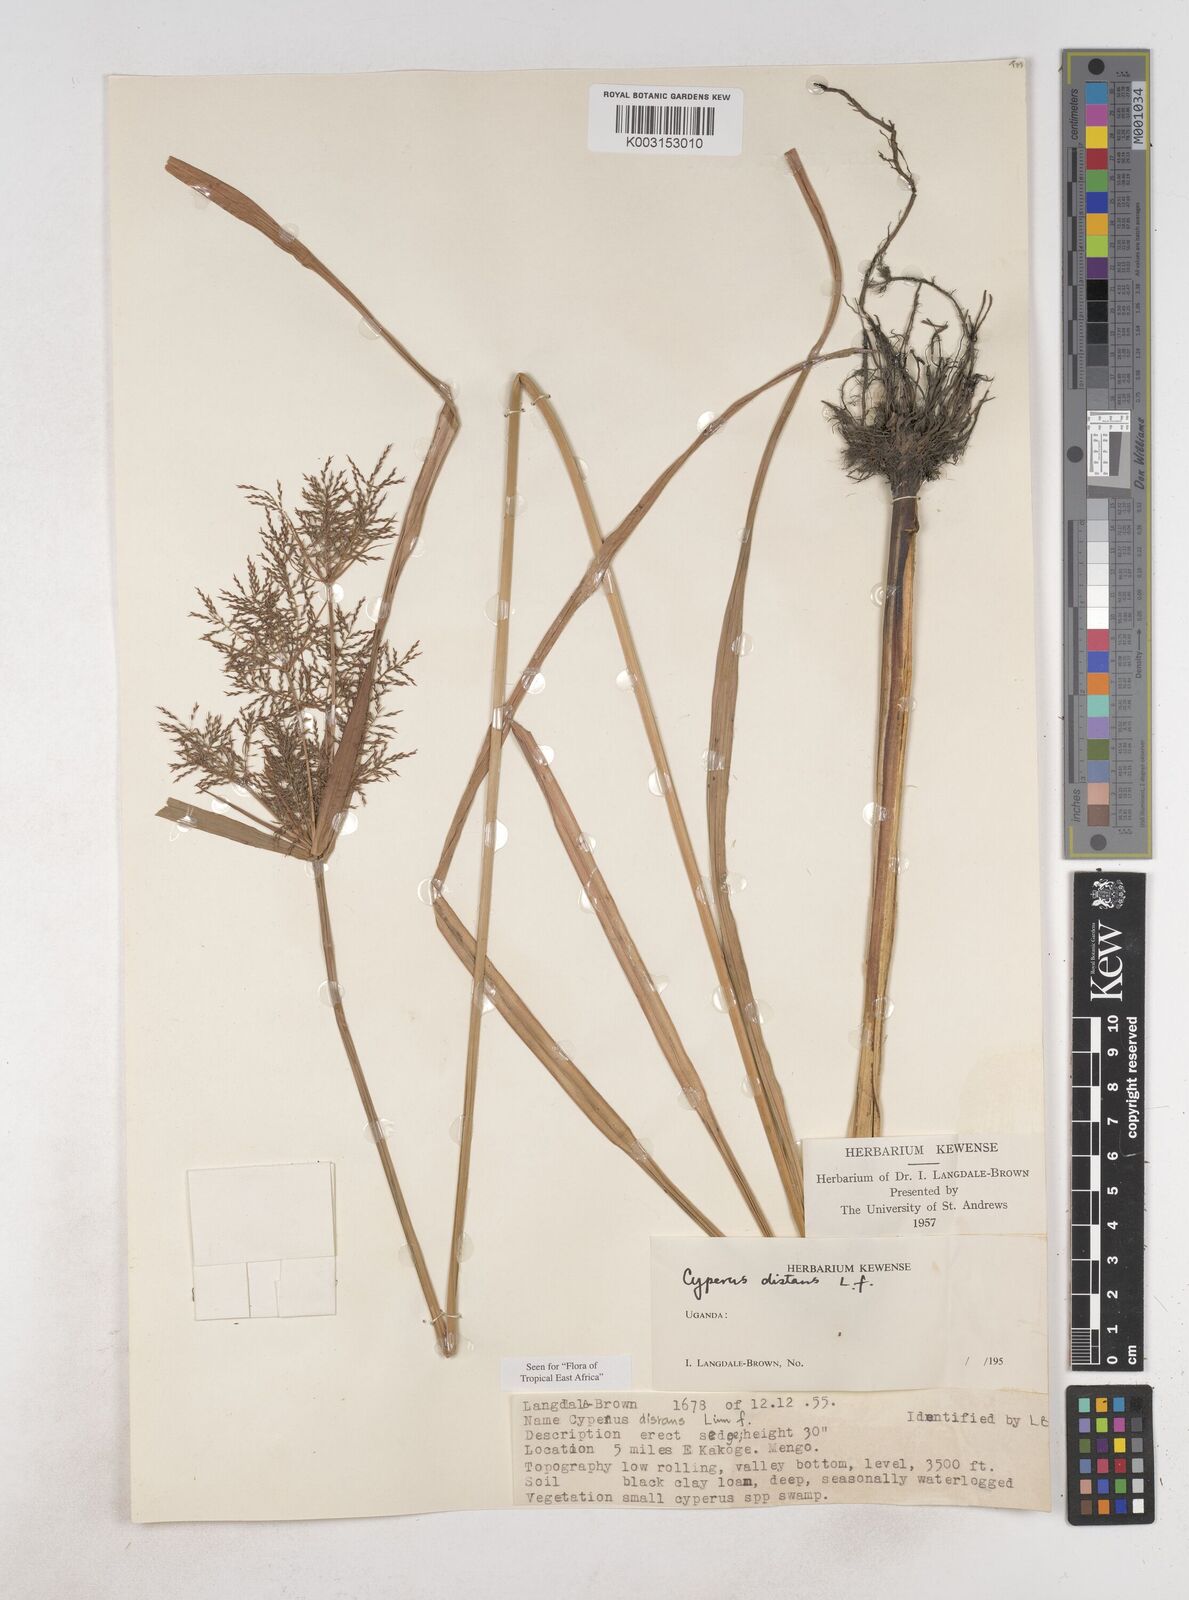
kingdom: Plantae
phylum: Tracheophyta
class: Liliopsida
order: Poales
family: Cyperaceae
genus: Cyperus
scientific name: Cyperus distans
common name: Slender cyperus
